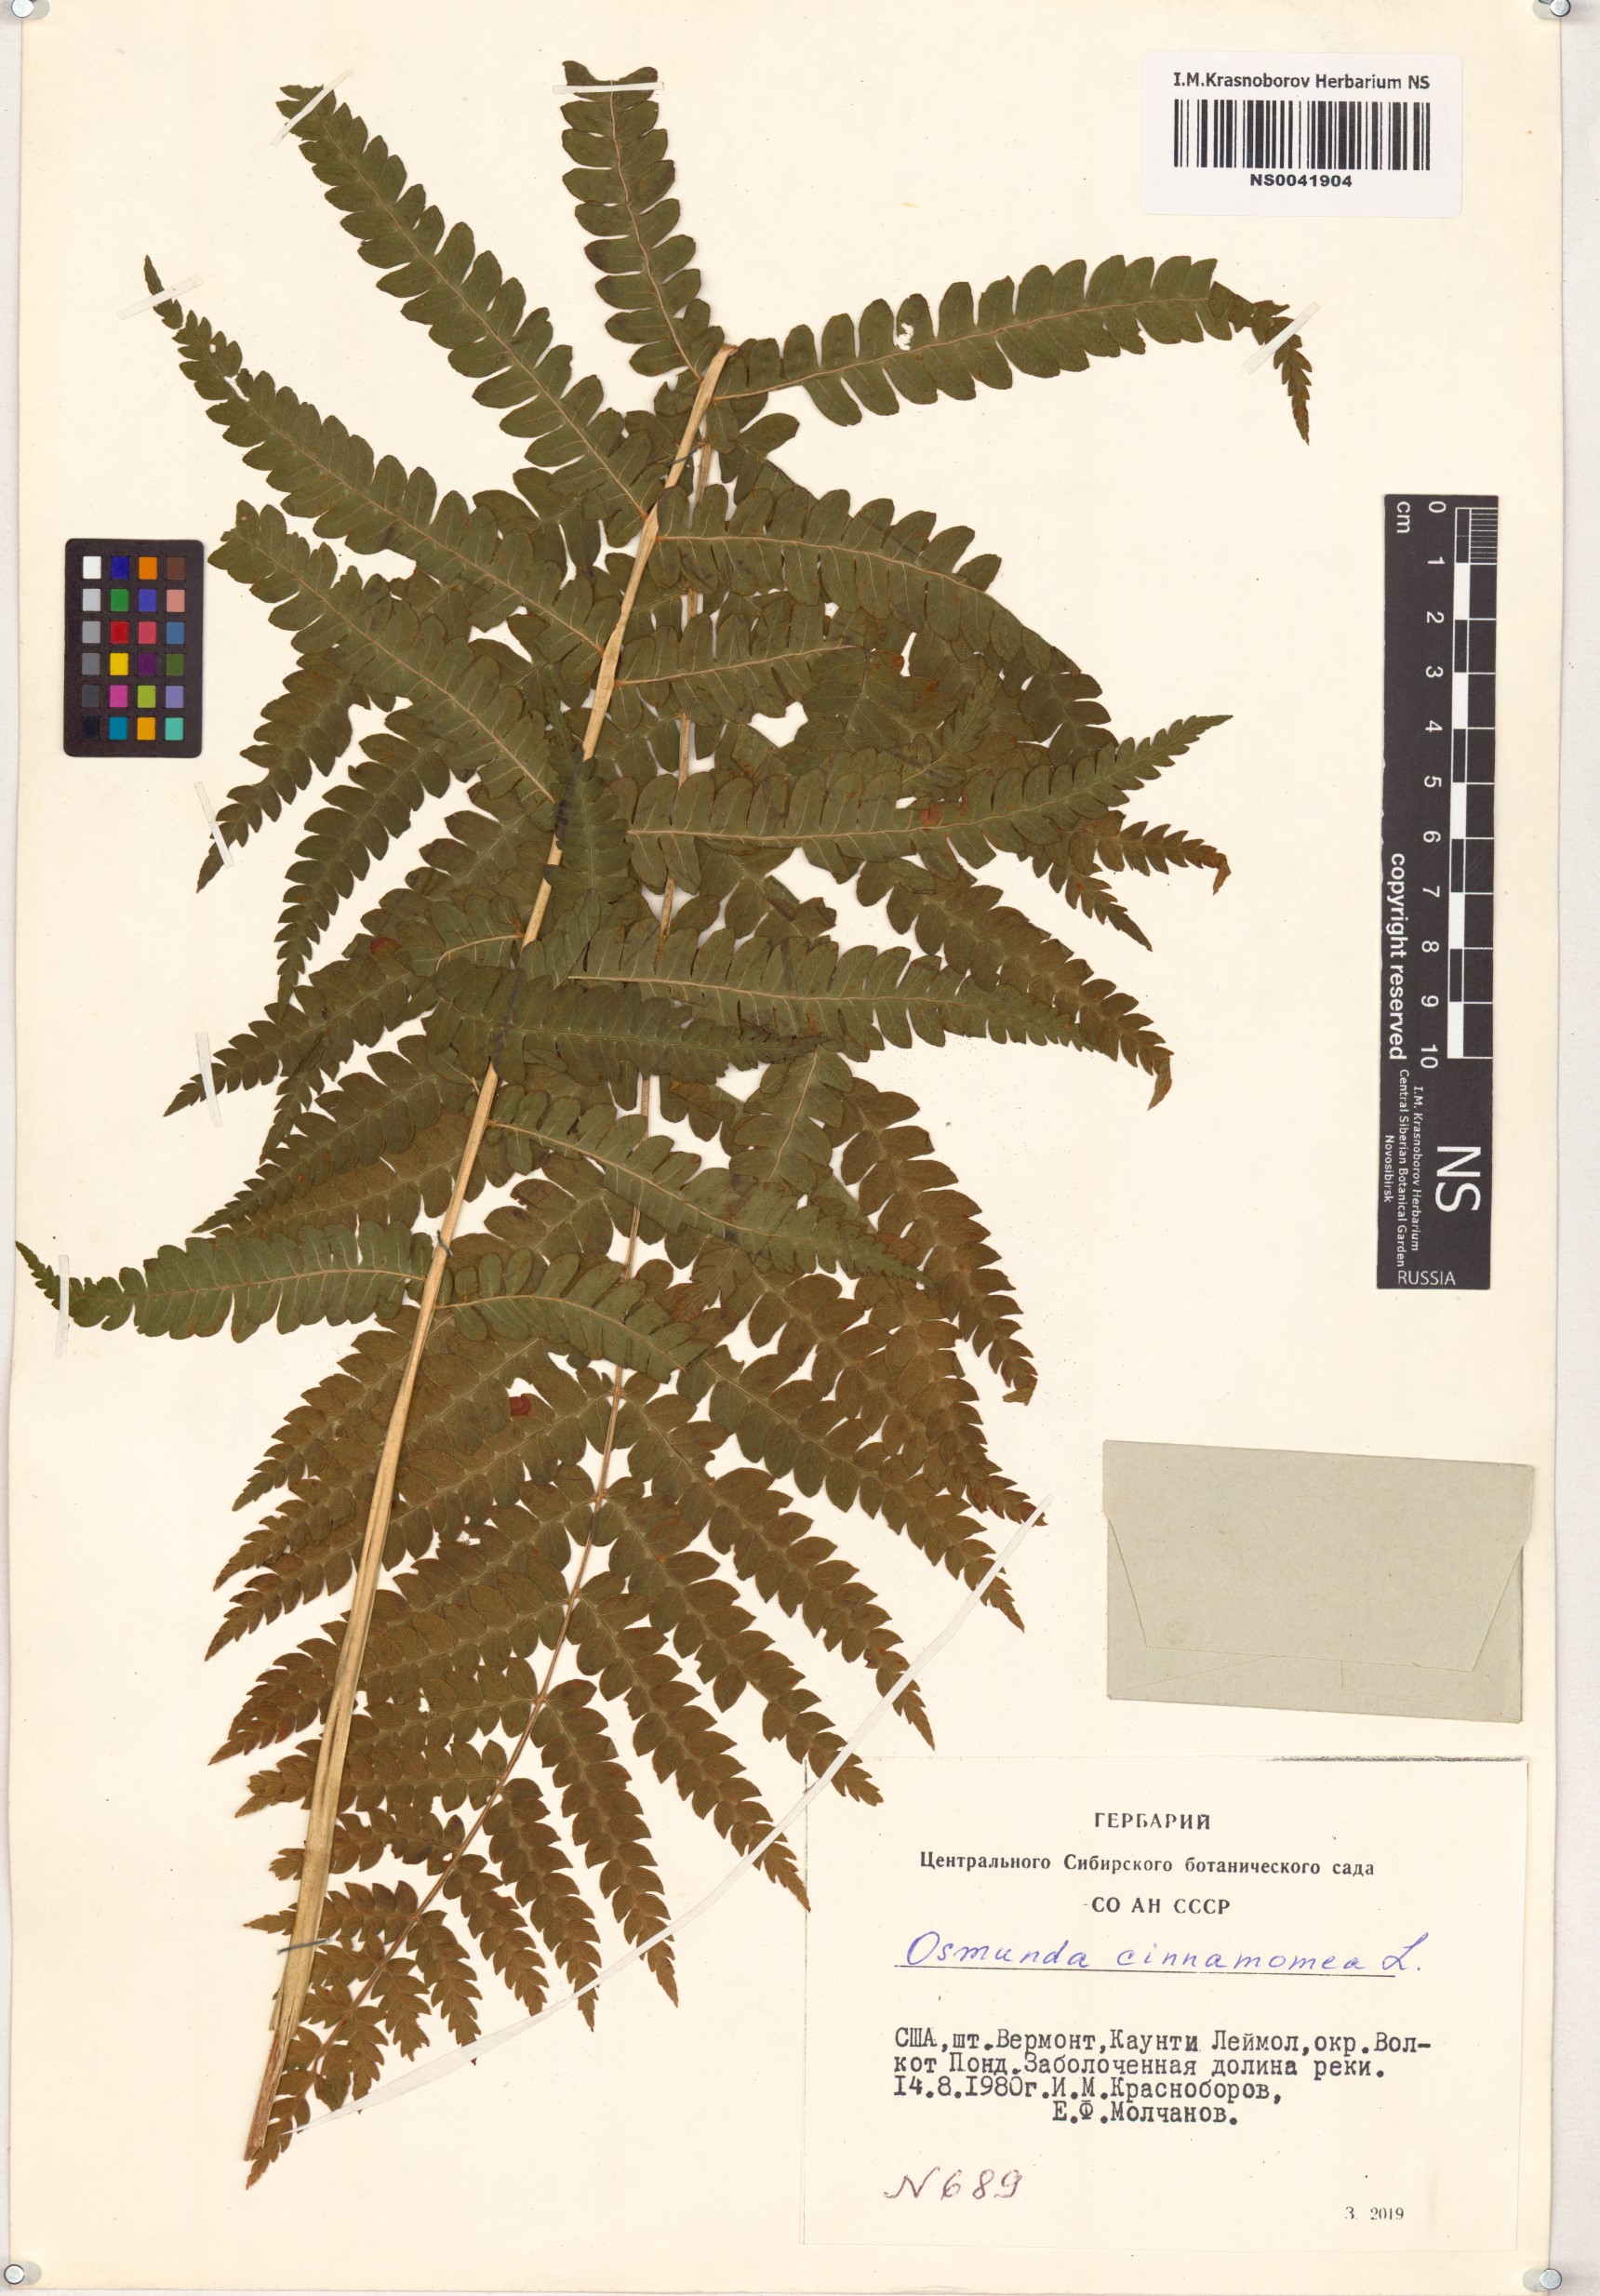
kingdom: Plantae
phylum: Tracheophyta
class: Polypodiopsida
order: Osmundales
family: Osmundaceae
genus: Osmundastrum
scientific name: Osmundastrum cinnamomeum
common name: Cinnamon fern
